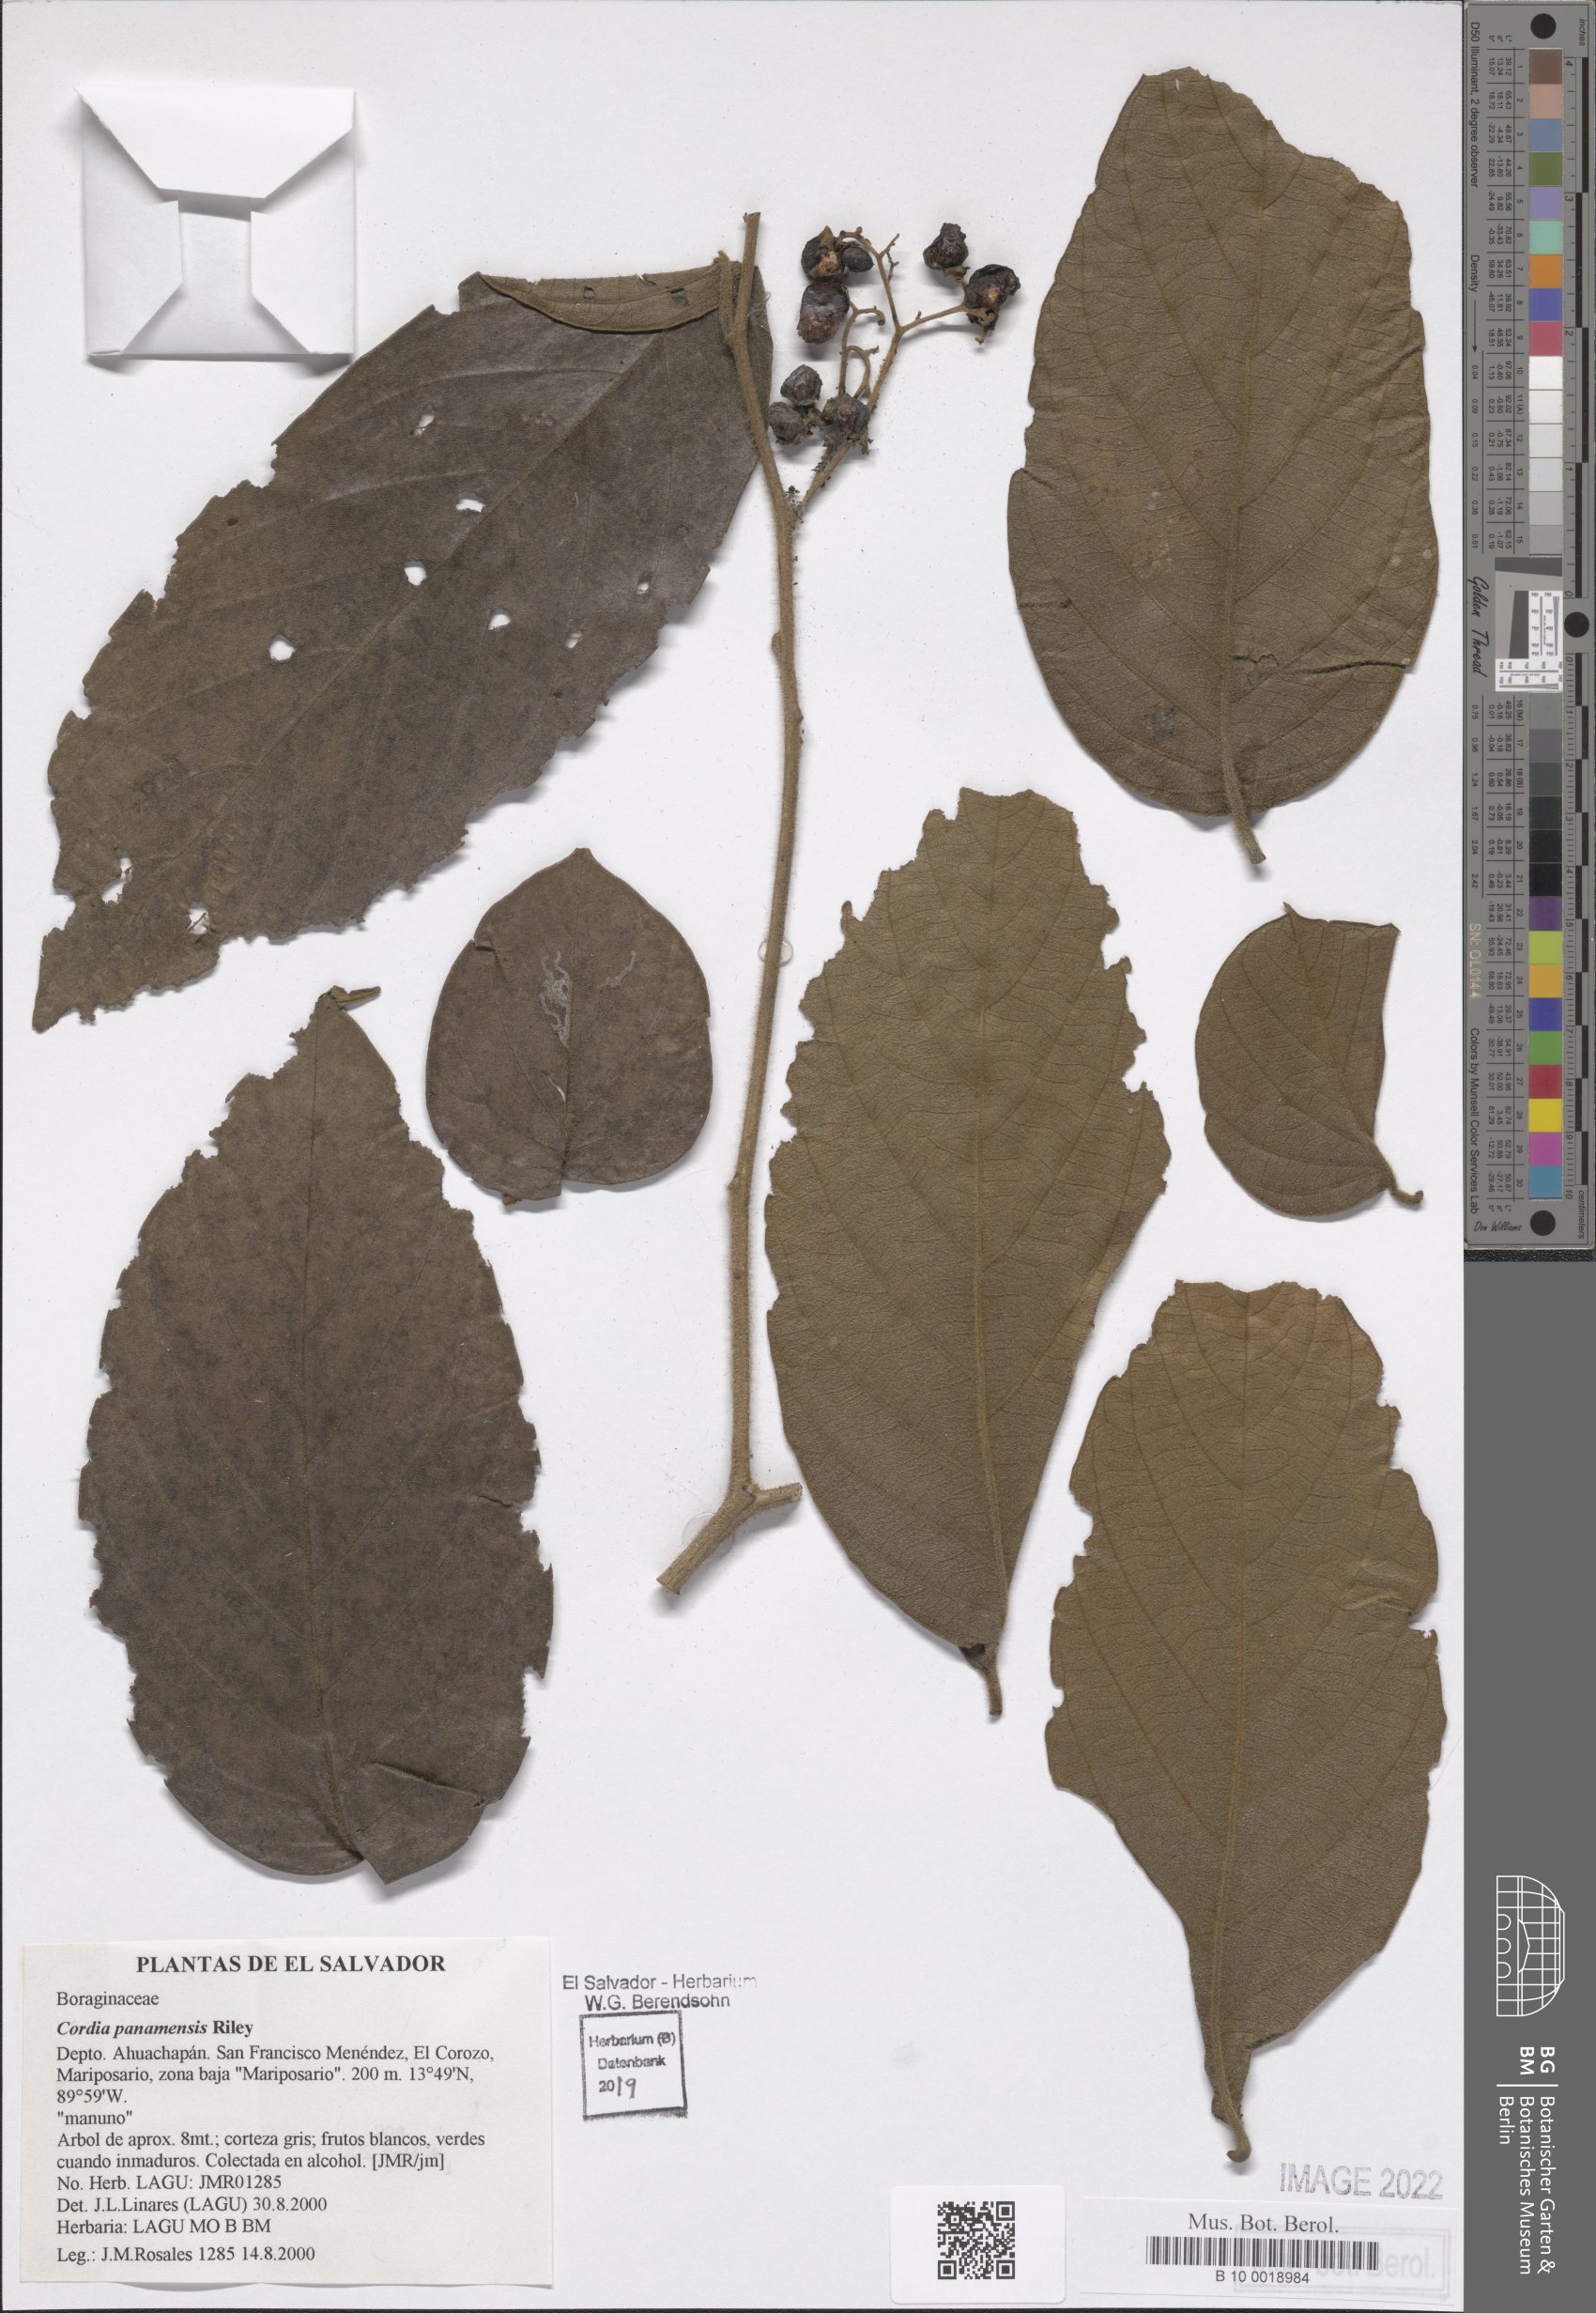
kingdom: Plantae
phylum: Tracheophyta
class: Magnoliopsida
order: Boraginales
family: Cordiaceae
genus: Cordia
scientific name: Cordia panamensis
